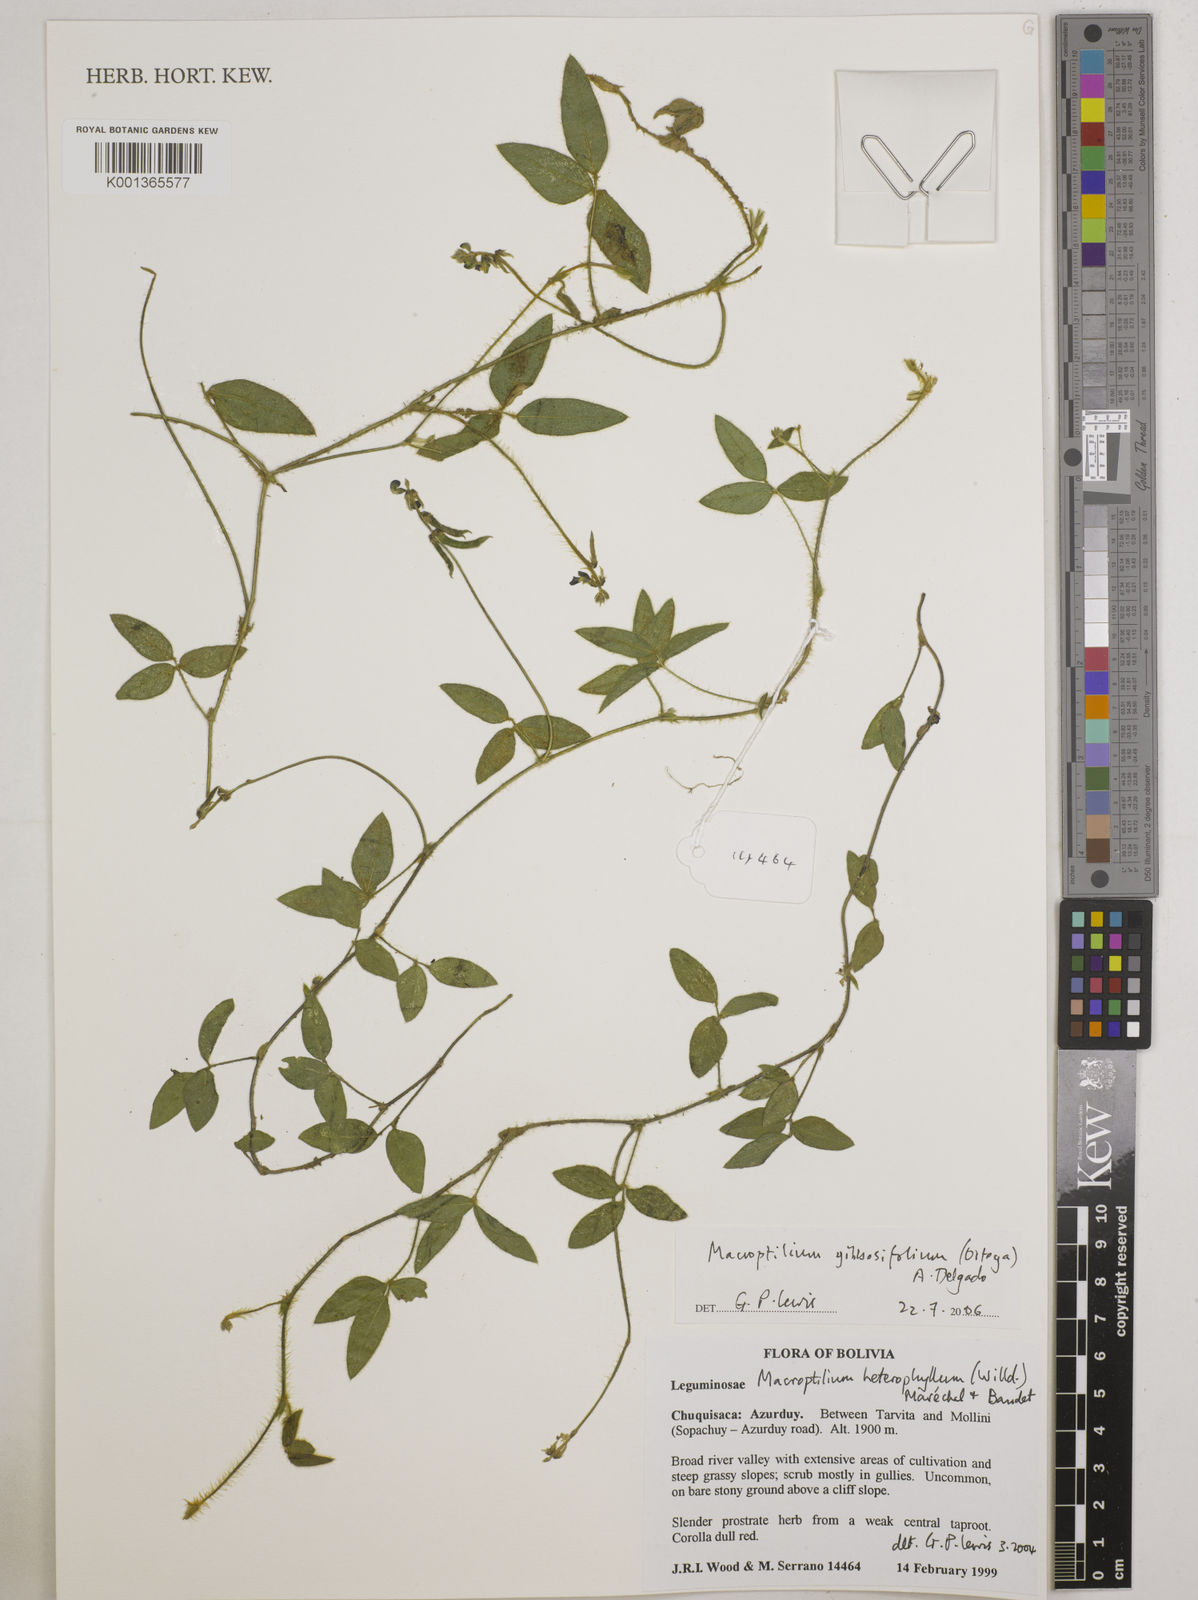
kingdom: Plantae
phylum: Tracheophyta
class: Magnoliopsida
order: Fabales
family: Fabaceae
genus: Macroptilium
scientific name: Macroptilium gibbosifolium
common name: Variableleaf bushbean
